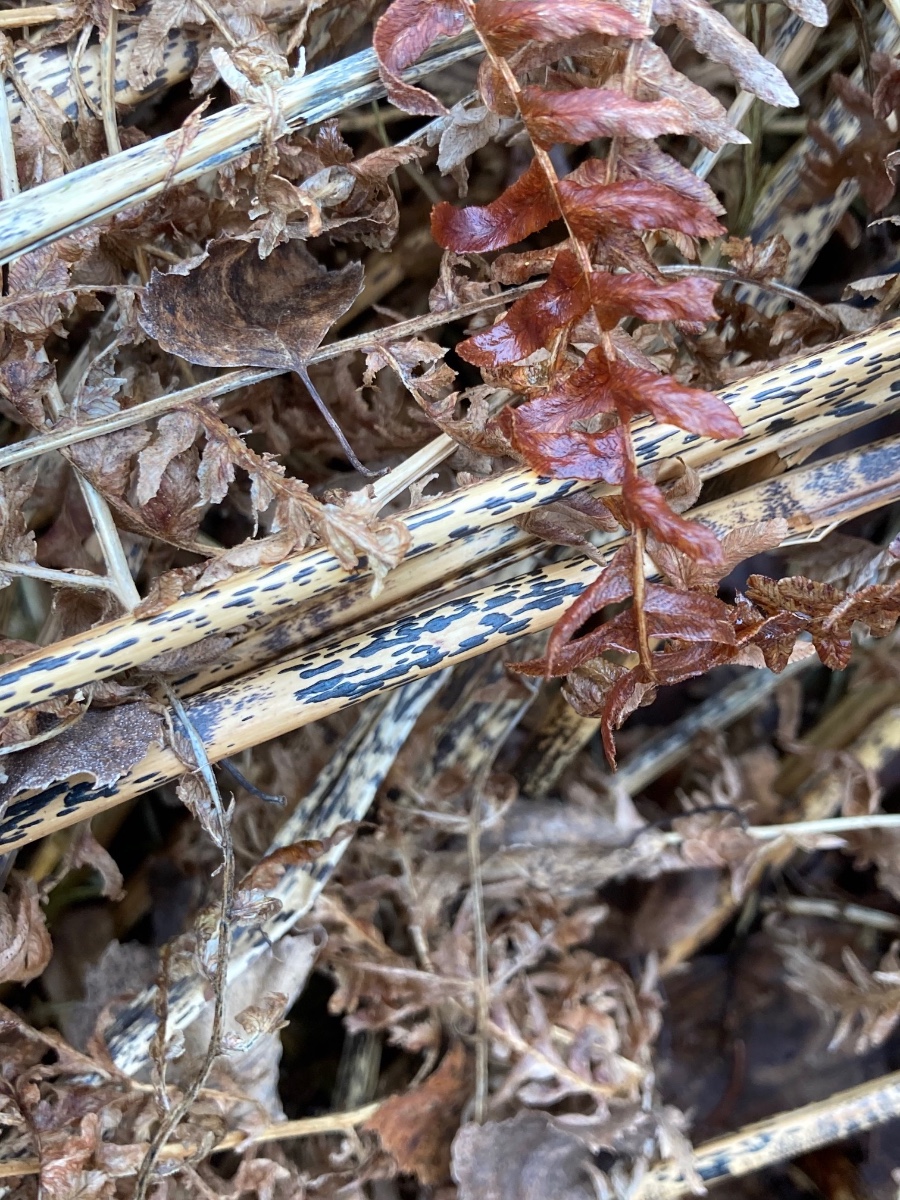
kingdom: Fungi
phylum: Ascomycota
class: Dothideomycetes
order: Pleosporales
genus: Rhopographus
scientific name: Rhopographus filicinus
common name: Bracken map
